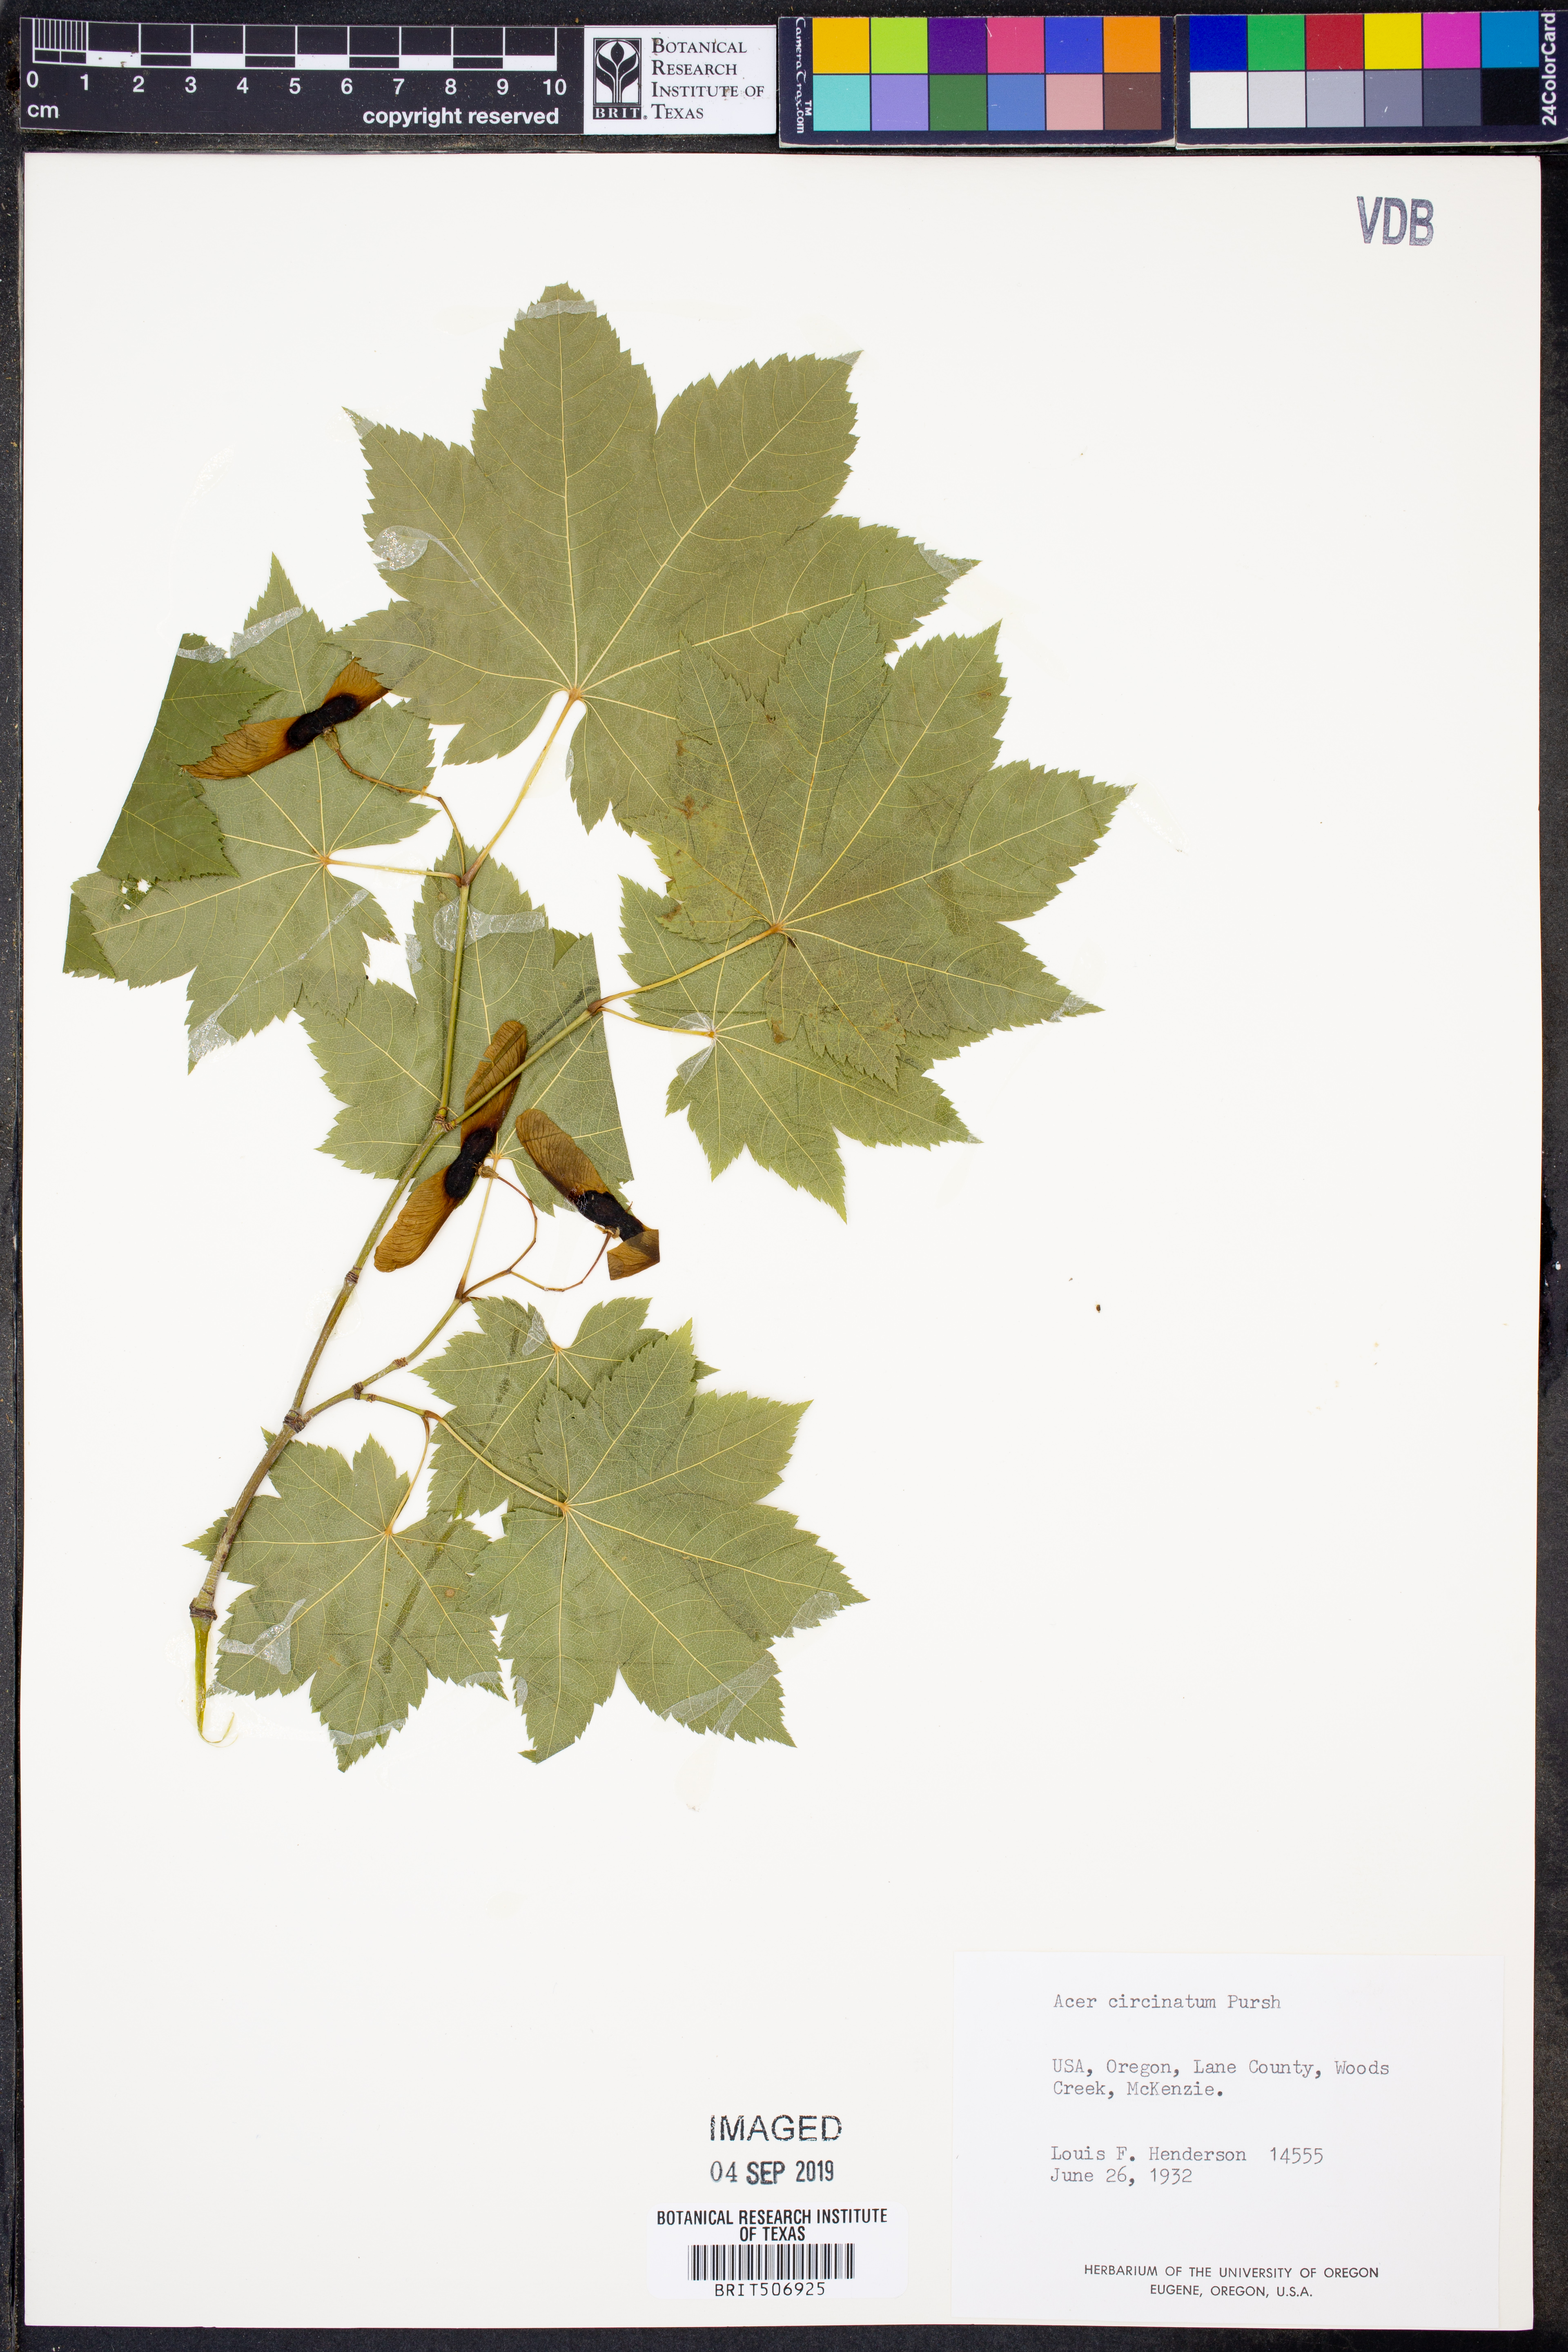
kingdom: Plantae
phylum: Tracheophyta
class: Magnoliopsida
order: Sapindales
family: Sapindaceae
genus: Acer
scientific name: Acer circinatum
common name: Vine maple
